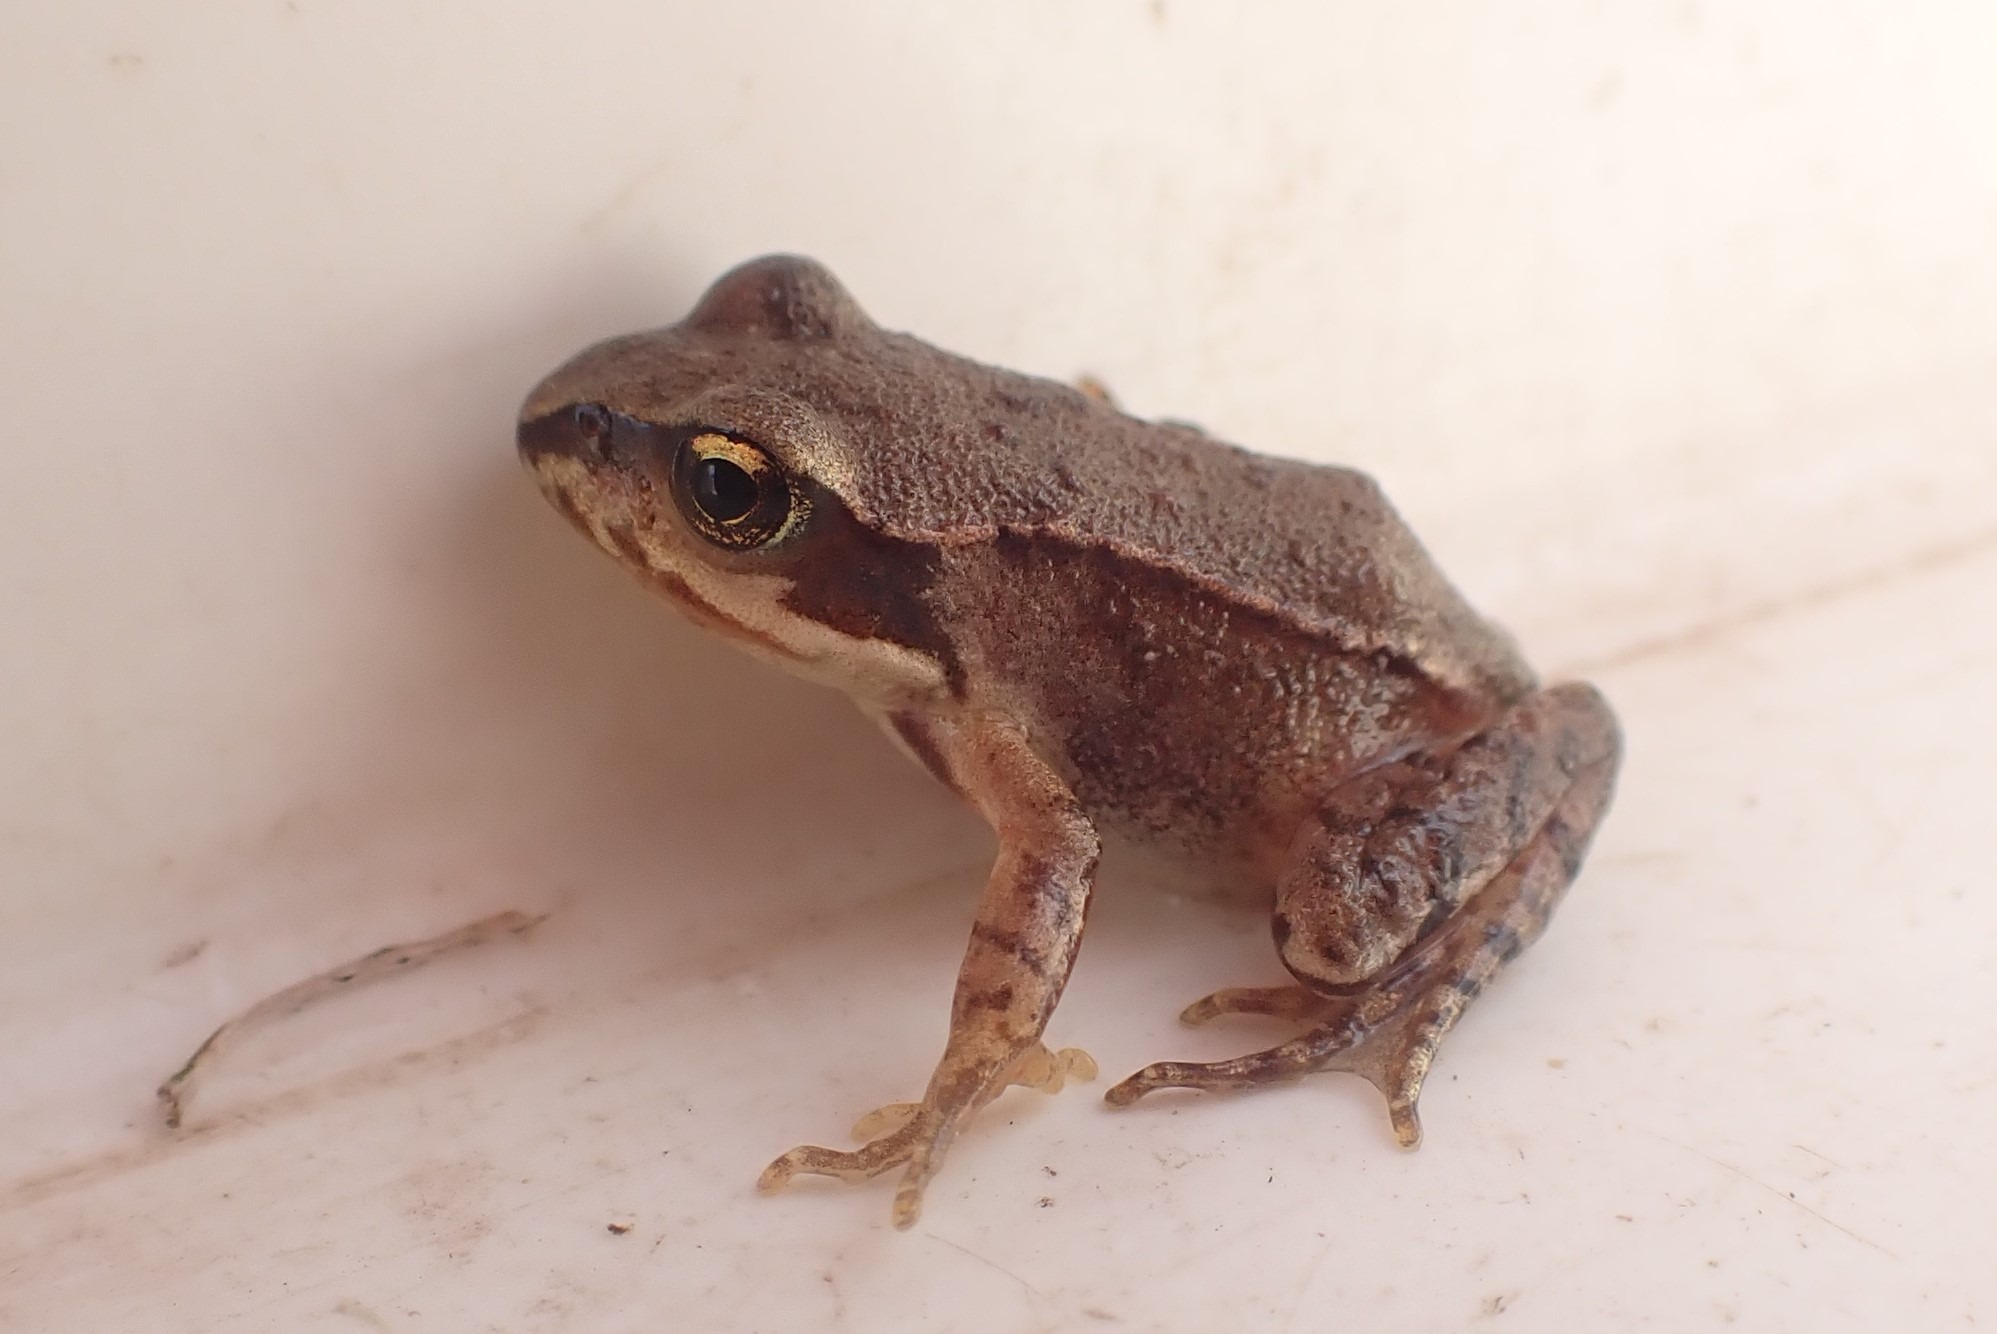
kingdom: Animalia
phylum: Chordata
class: Amphibia
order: Anura
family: Ranidae
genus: Rana
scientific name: Rana temporaria
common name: Butsnudet frø
